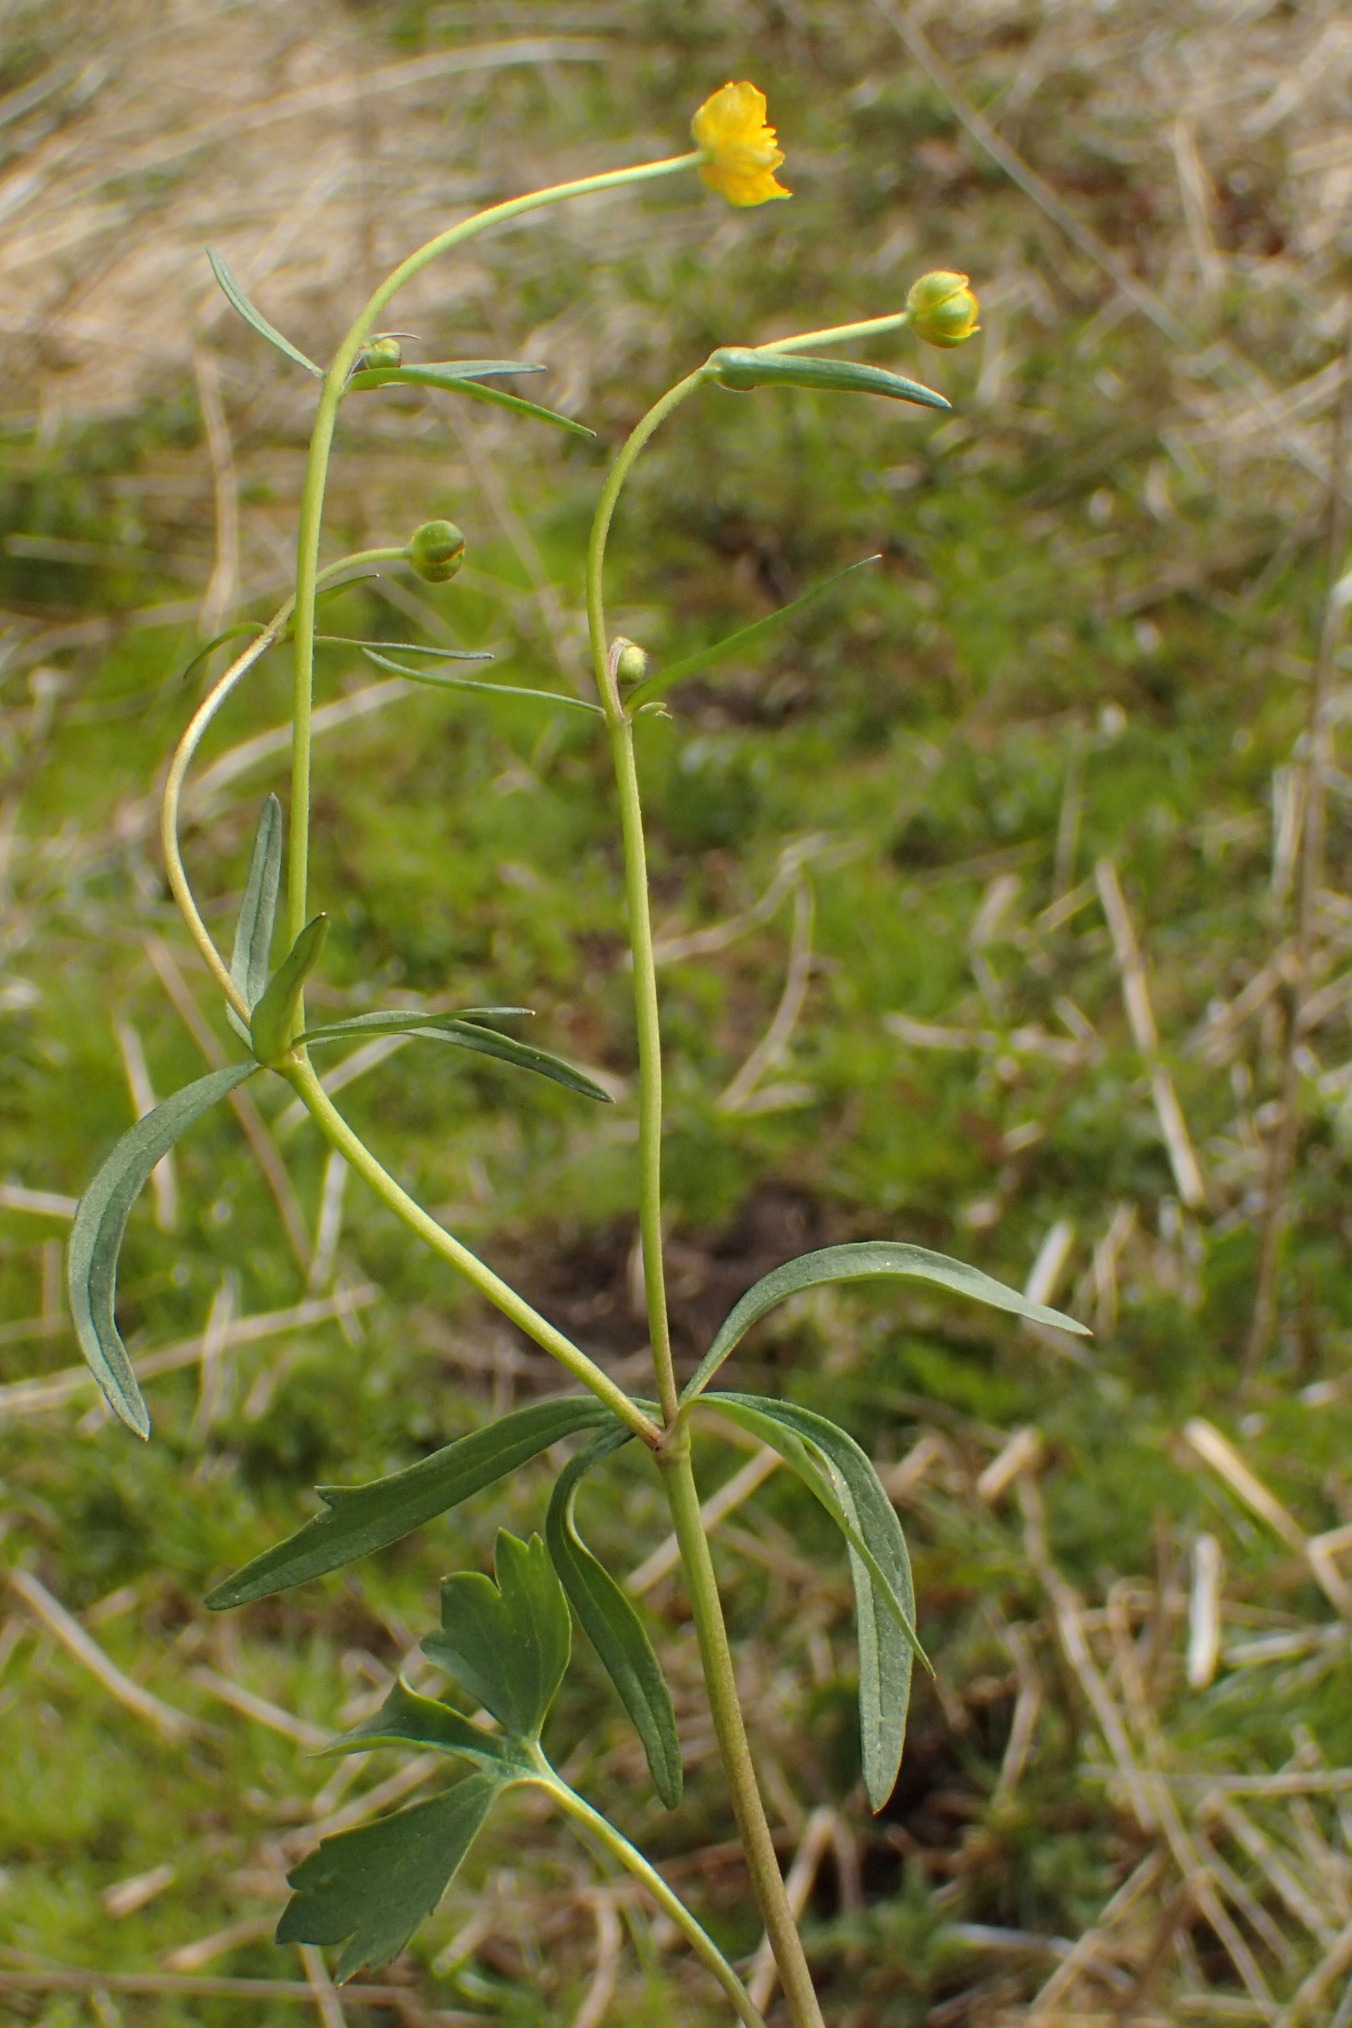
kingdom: Plantae
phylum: Tracheophyta
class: Magnoliopsida
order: Ranunculales
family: Ranunculaceae
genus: Ranunculus
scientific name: Ranunculus auricomus
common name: Nyrebladet ranunkel
